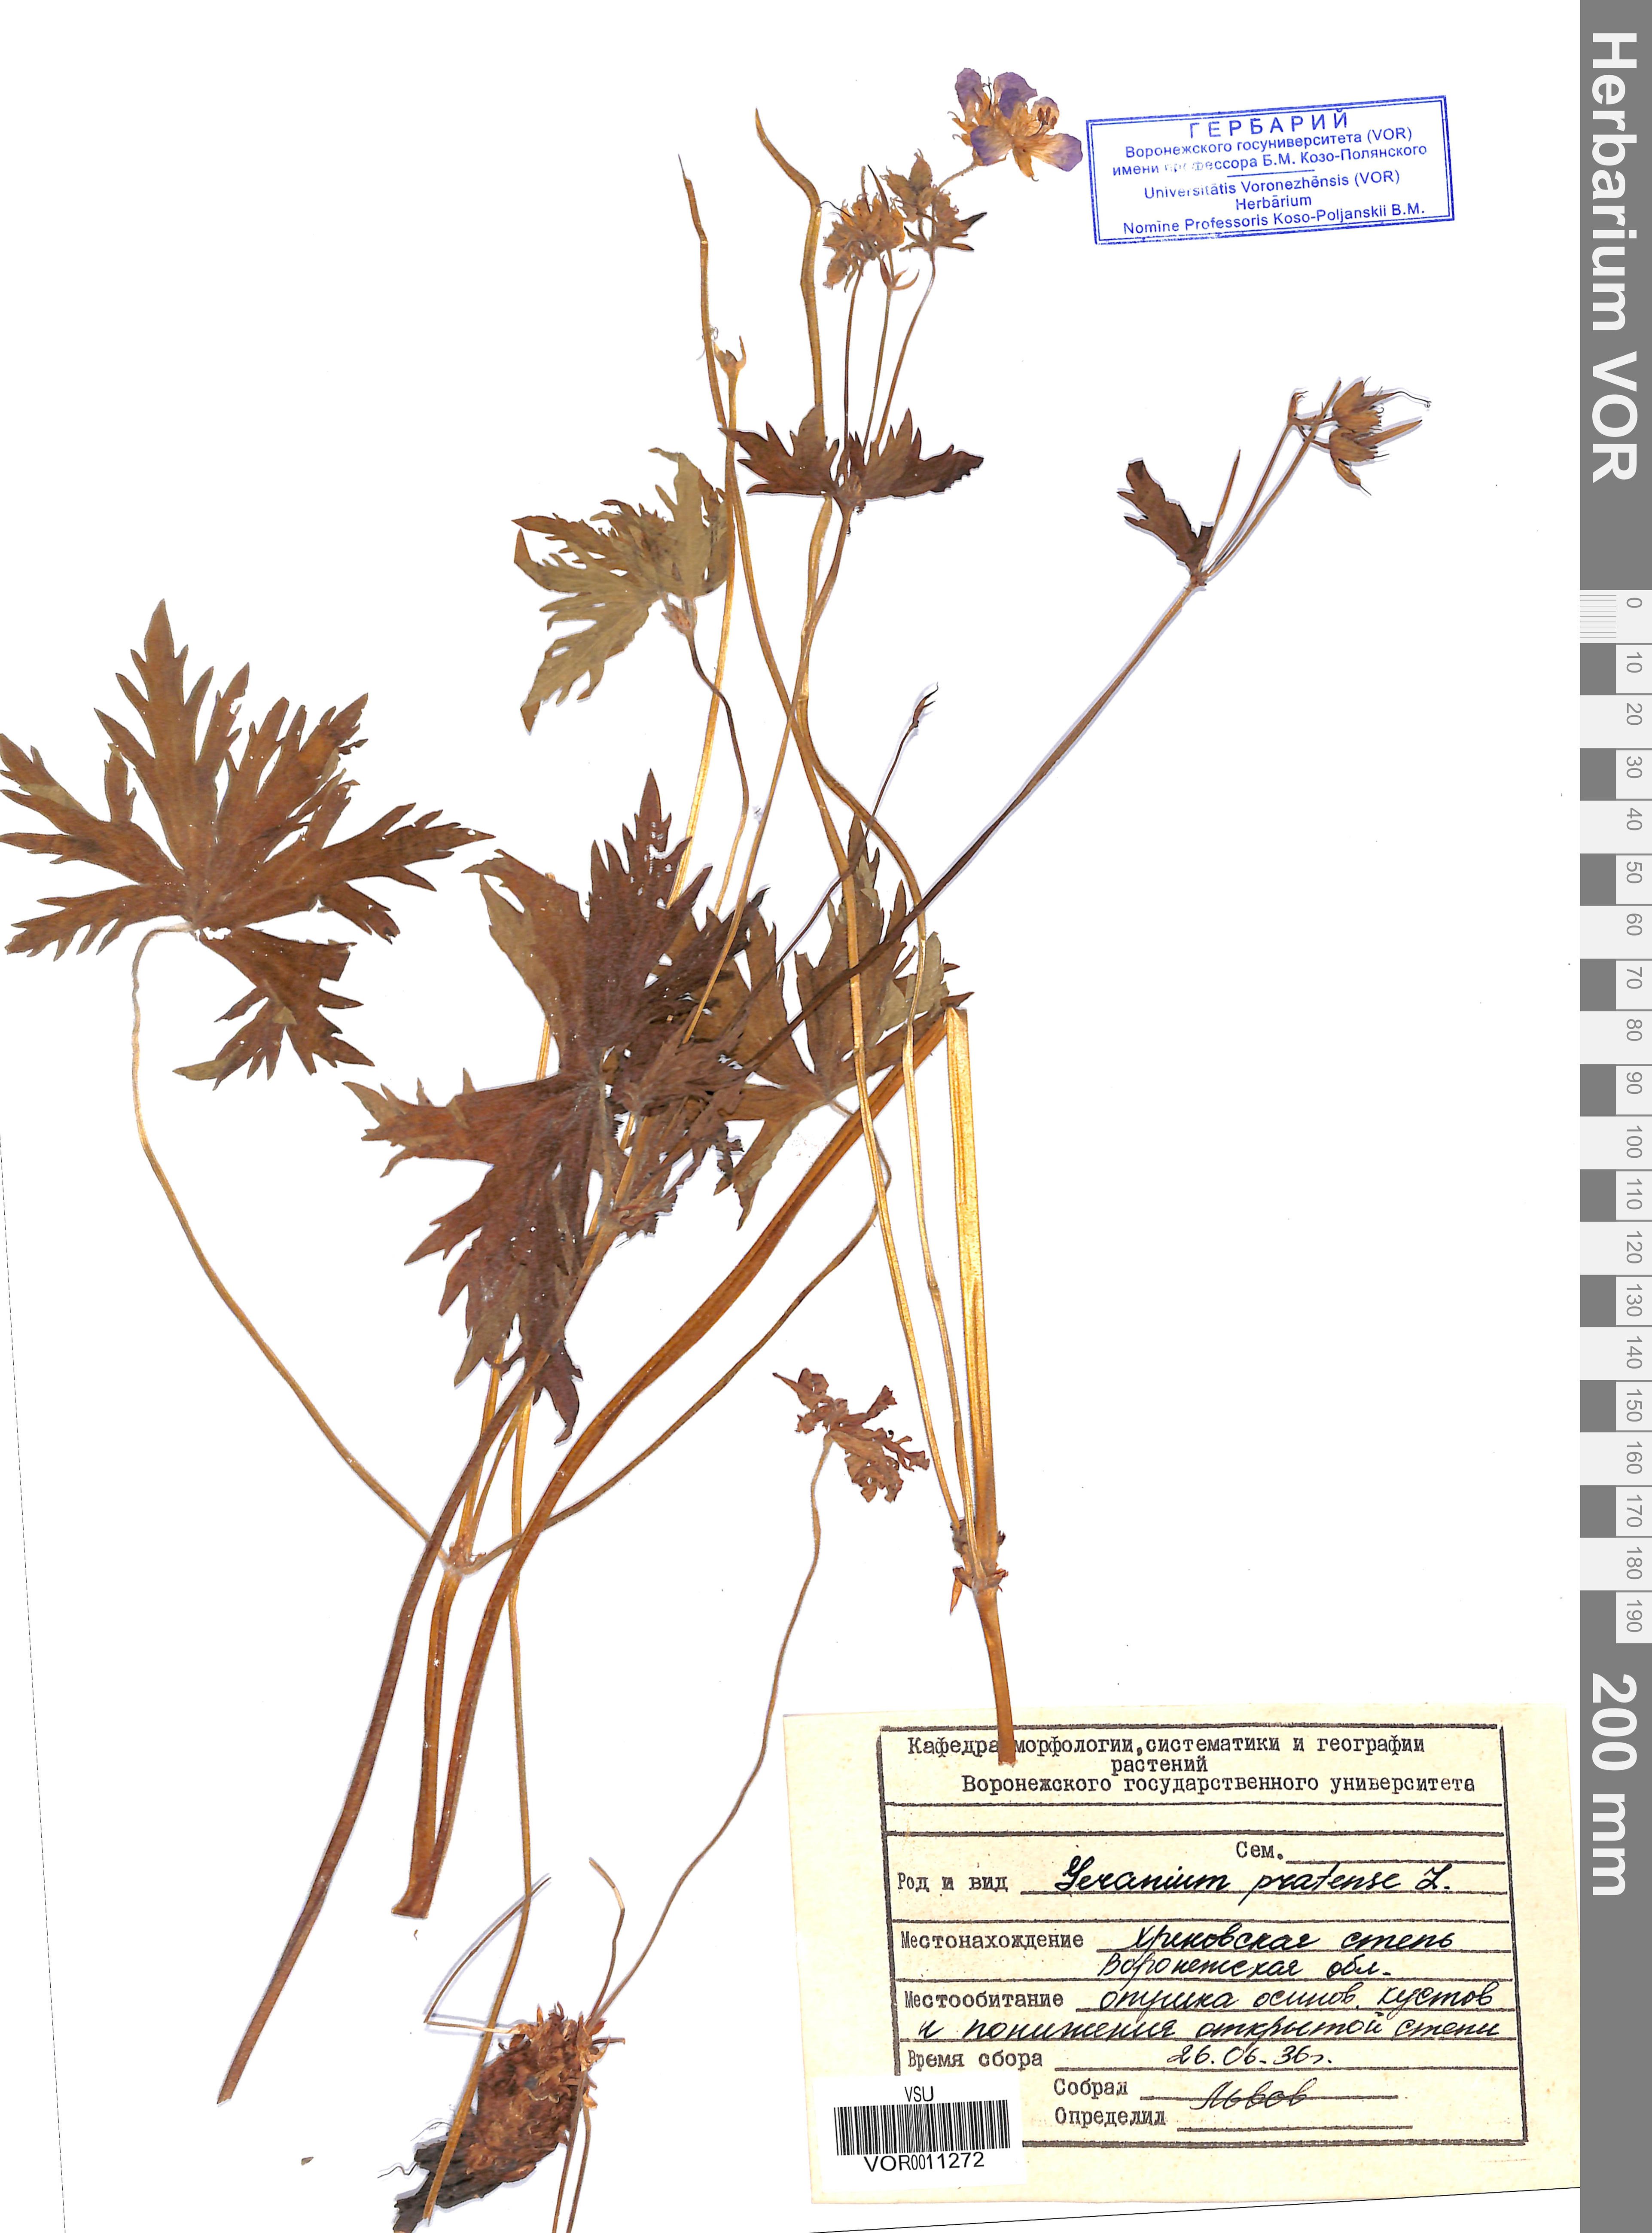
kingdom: Plantae
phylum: Tracheophyta
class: Magnoliopsida
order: Geraniales
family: Geraniaceae
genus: Geranium
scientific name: Geranium pratense
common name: Meadow crane's-bill
